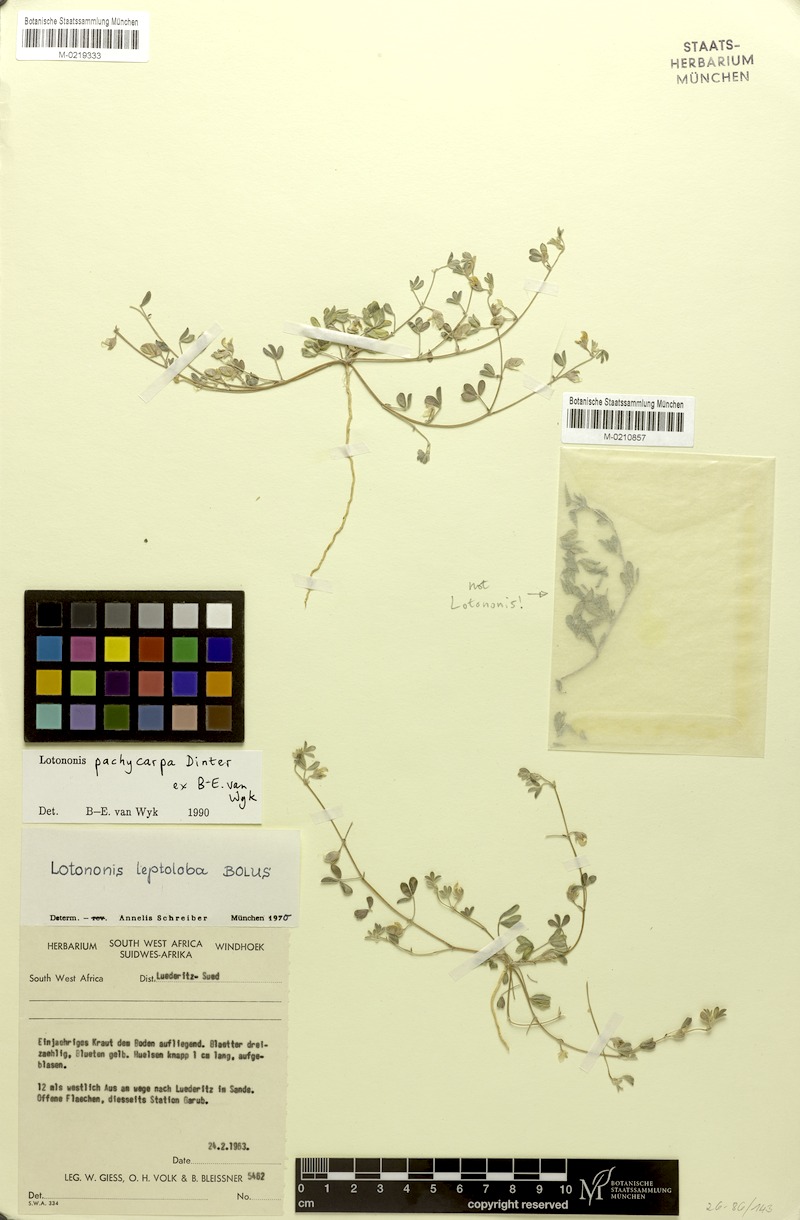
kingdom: Plantae
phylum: Tracheophyta
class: Magnoliopsida
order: Fabales
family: Fabaceae
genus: Lotononis
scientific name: Lotononis pachycarpa
